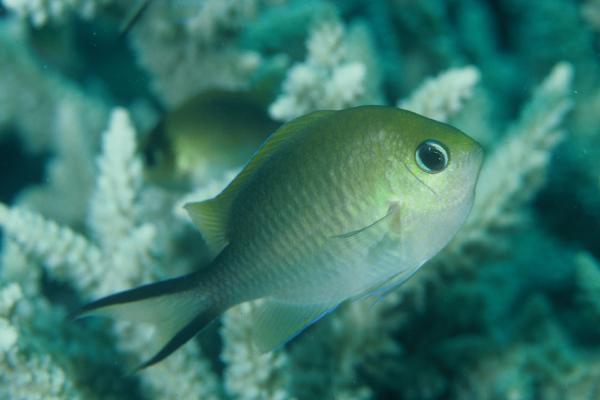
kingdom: Animalia
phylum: Chordata
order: Perciformes
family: Pomacentridae
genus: Chromis
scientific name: Chromis ternatensis
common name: Ternate chromis
